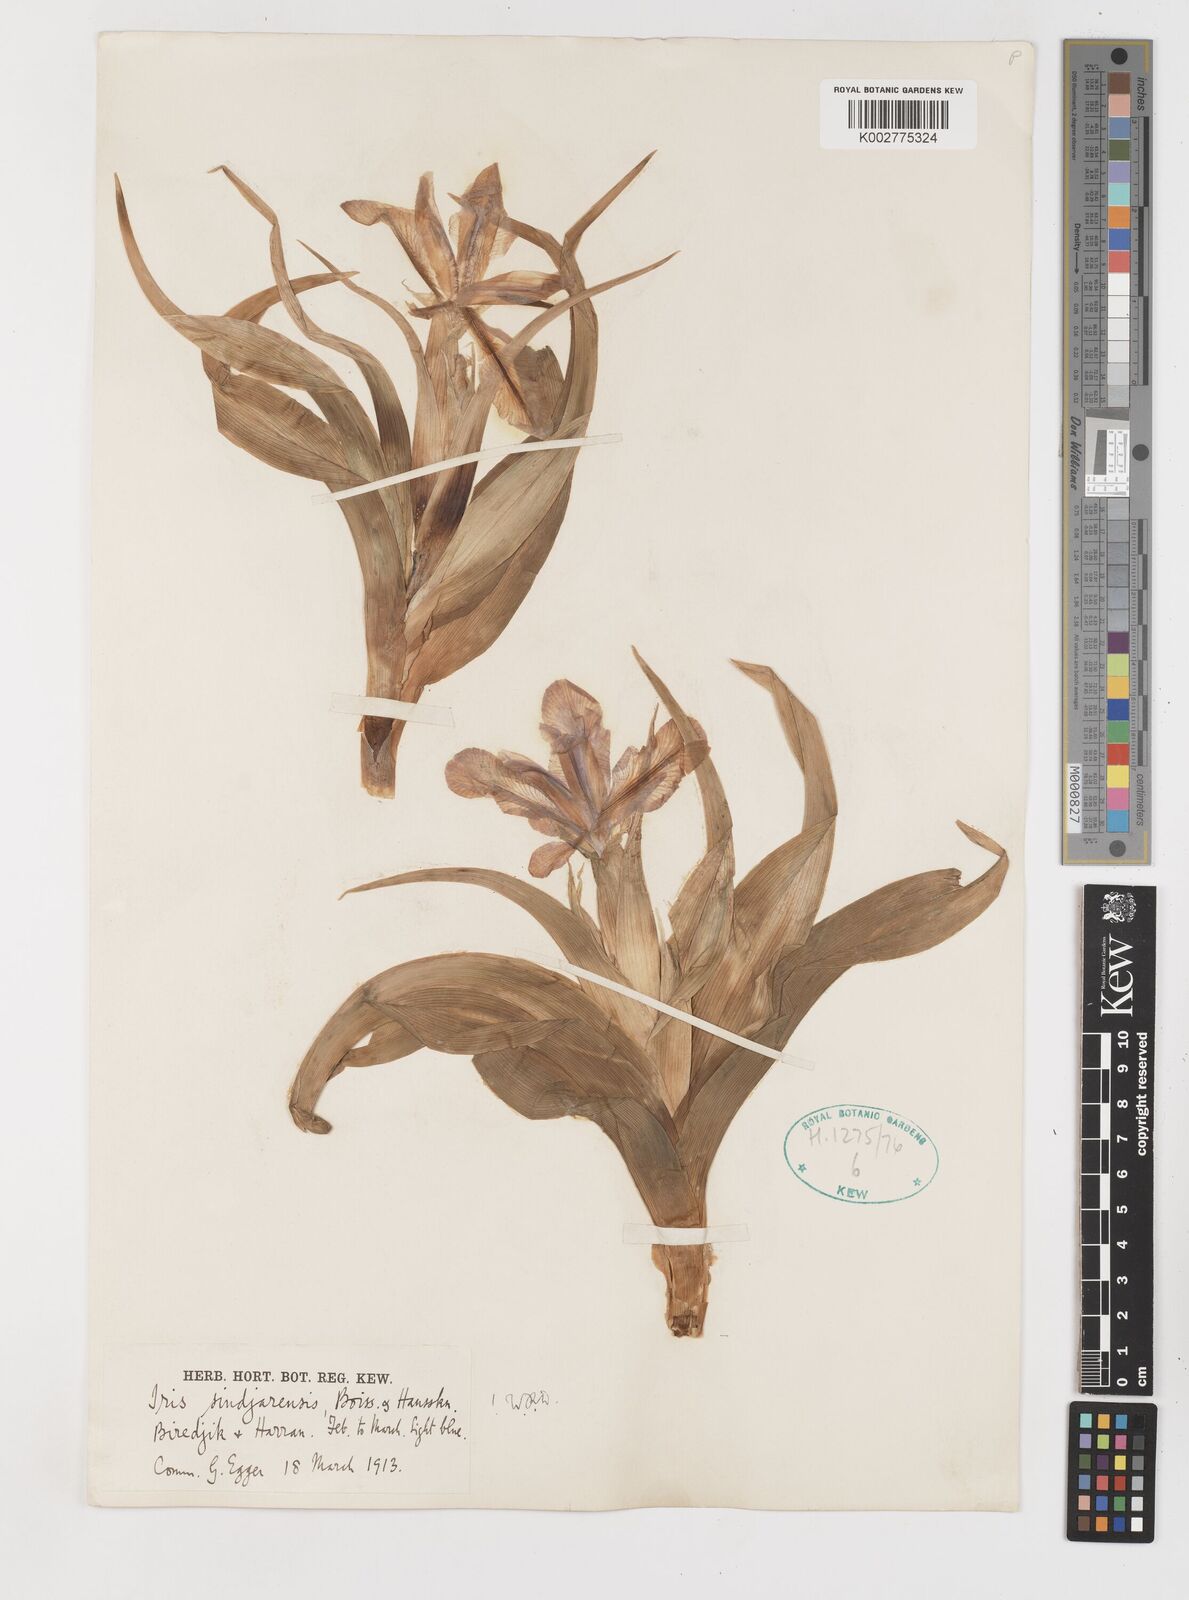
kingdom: Plantae
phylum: Tracheophyta
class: Liliopsida
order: Asparagales
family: Iridaceae
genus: Iris
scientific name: Iris aucheri
